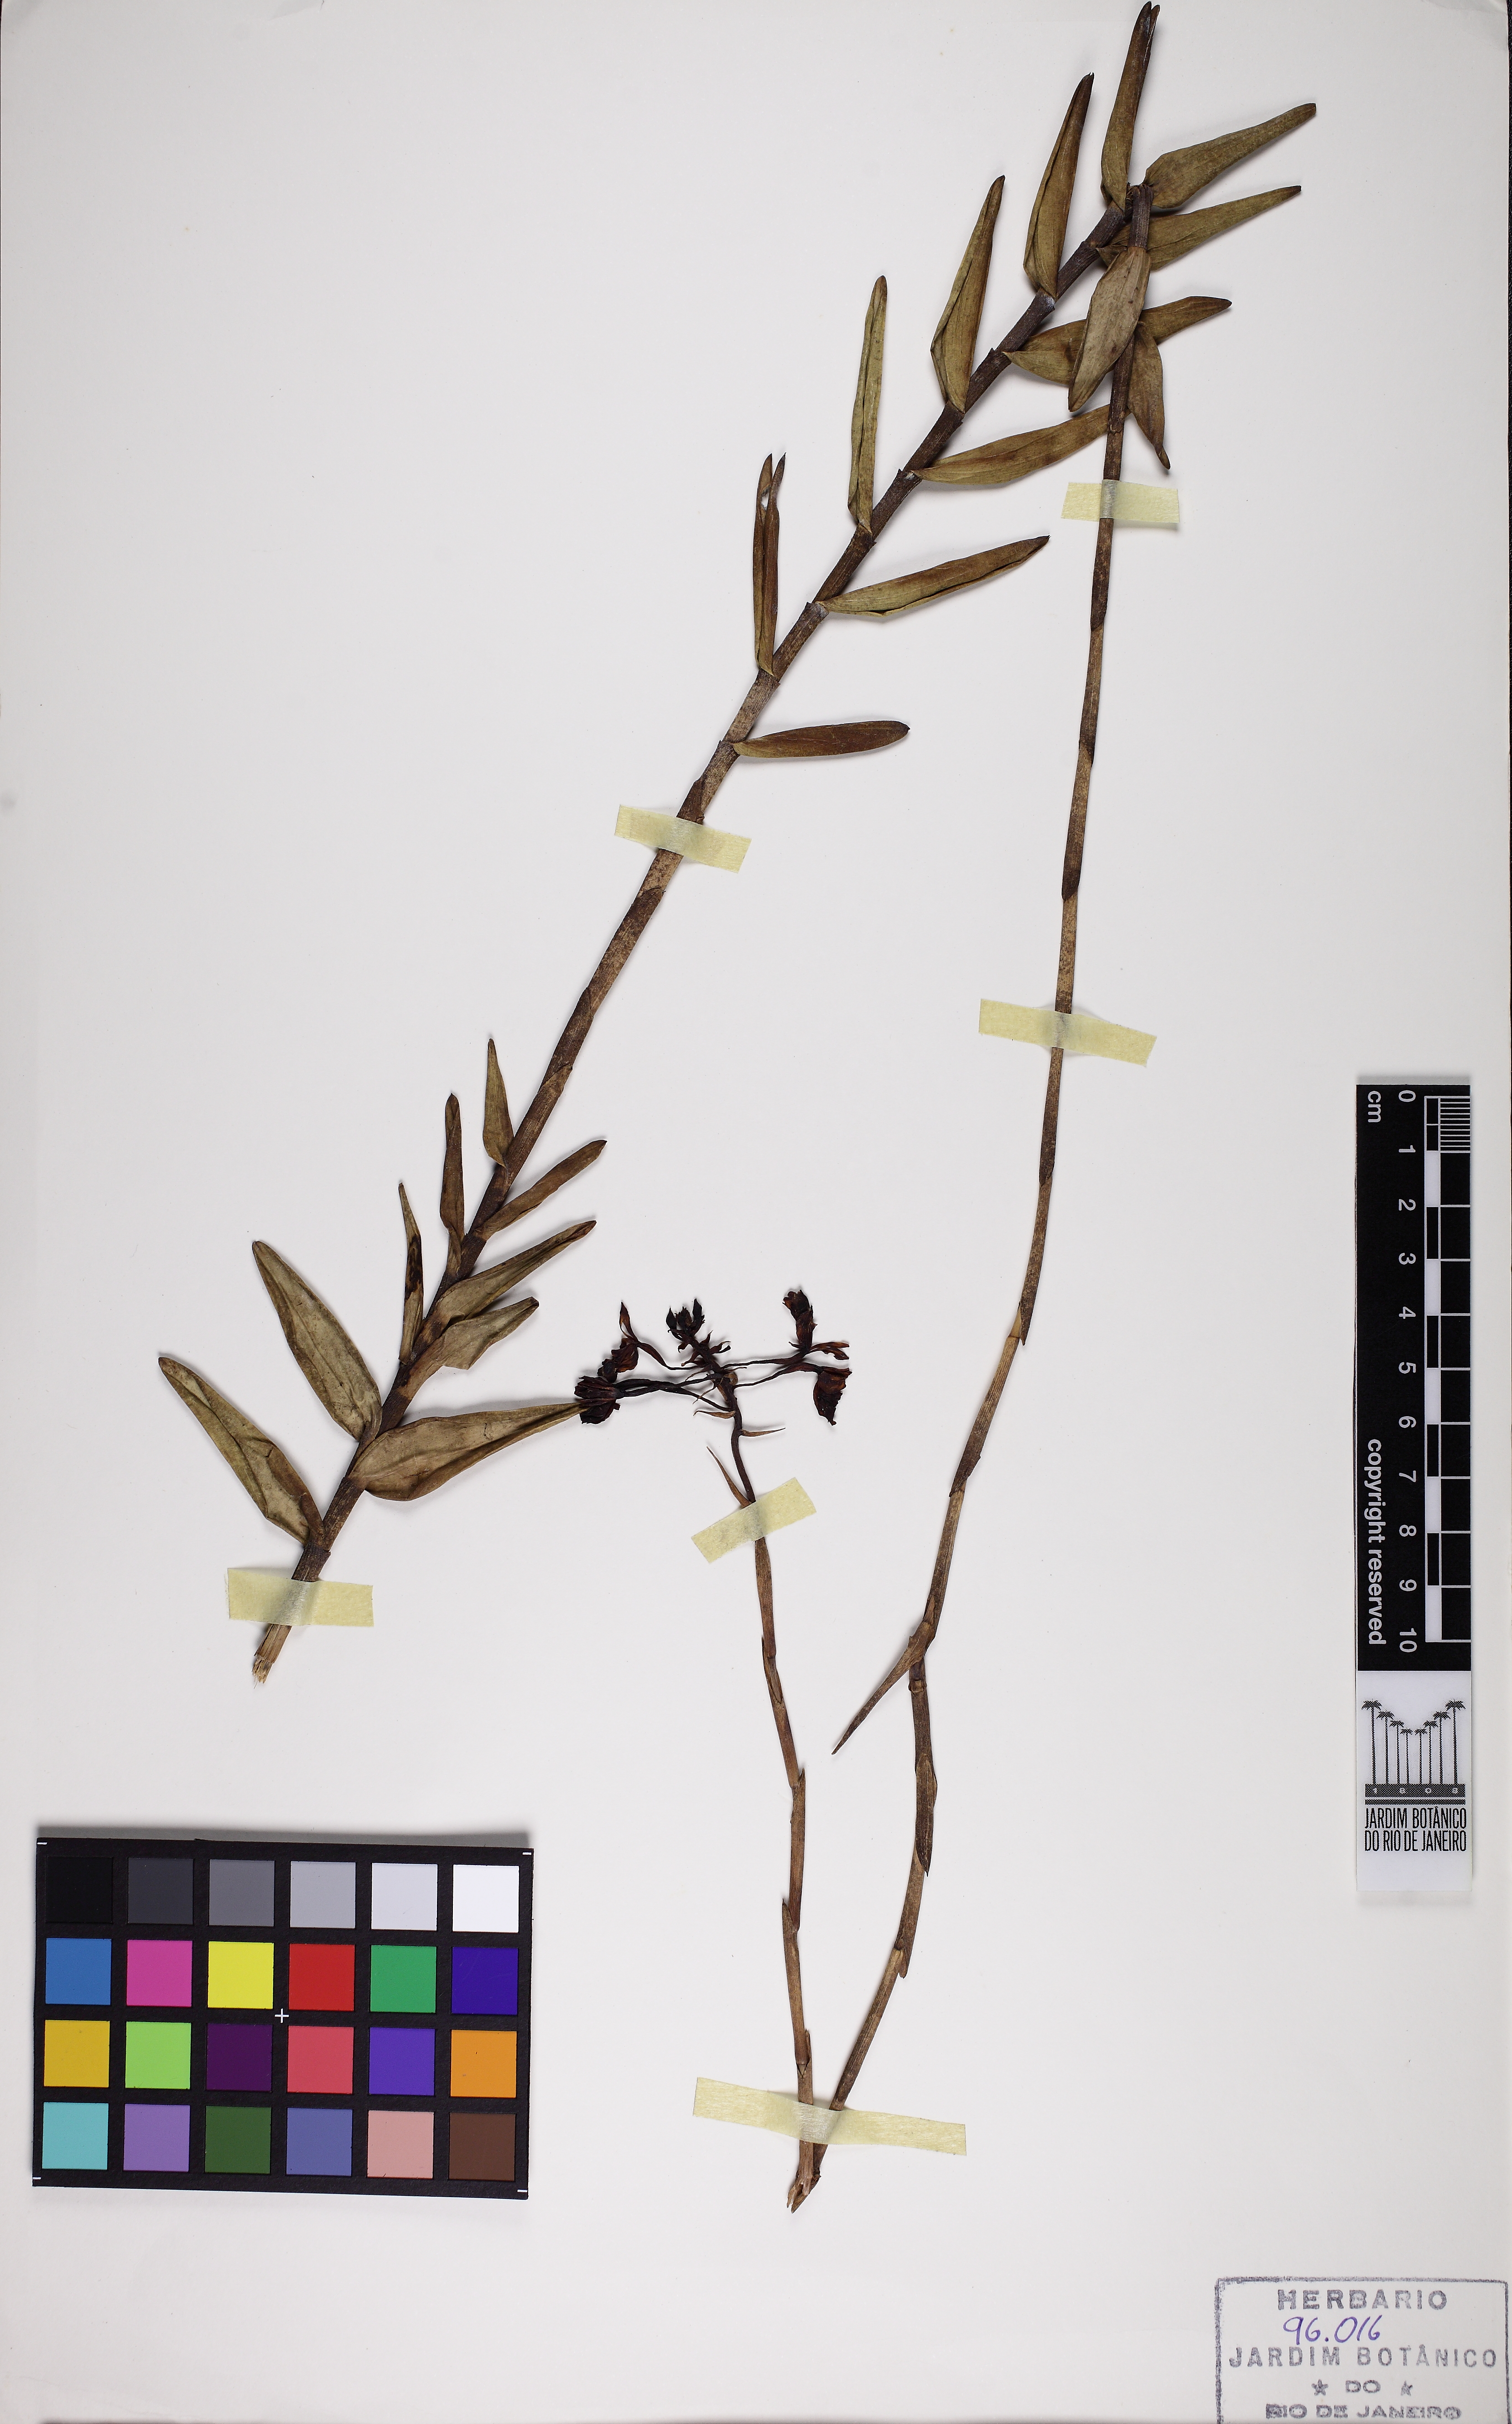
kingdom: Plantae
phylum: Tracheophyta
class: Liliopsida
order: Asparagales
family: Orchidaceae
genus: Epidendrum
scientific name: Epidendrum orchidiflorum
